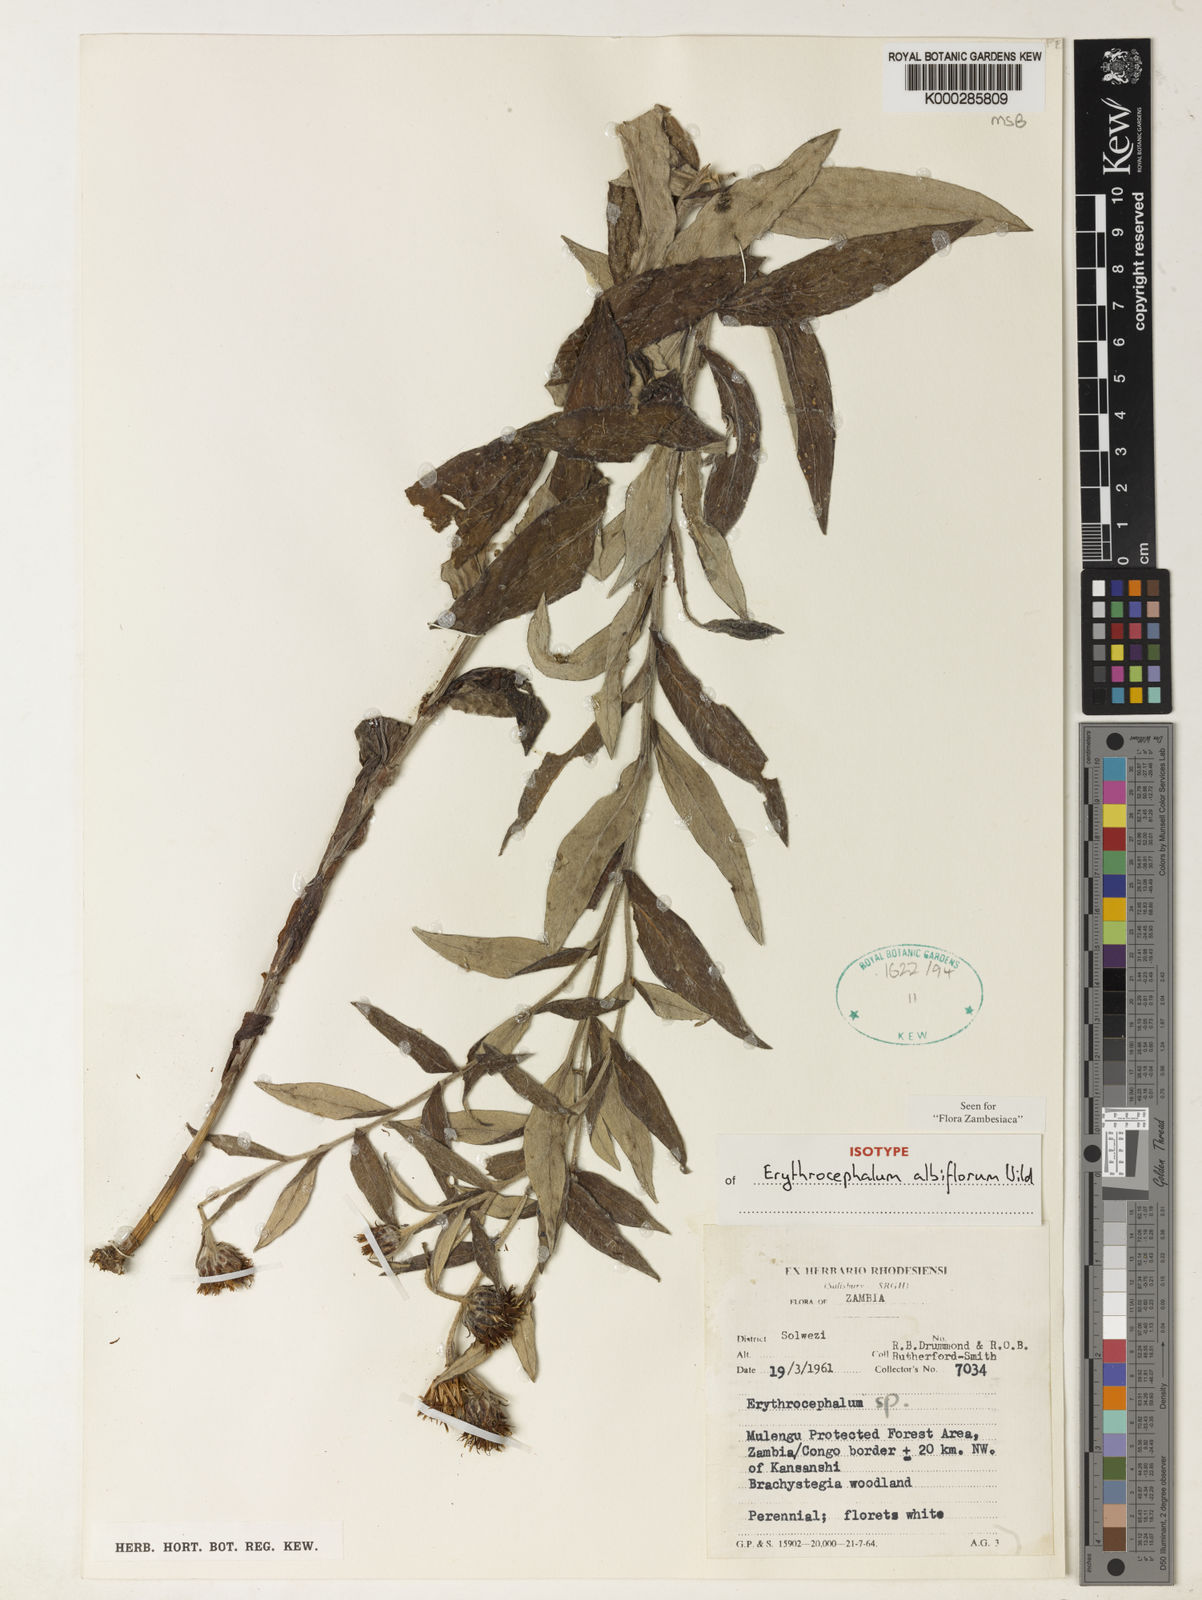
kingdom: Plantae
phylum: Tracheophyta
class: Magnoliopsida
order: Asterales
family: Asteraceae
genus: Erythrocephalum
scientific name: Erythrocephalum albiflorum
